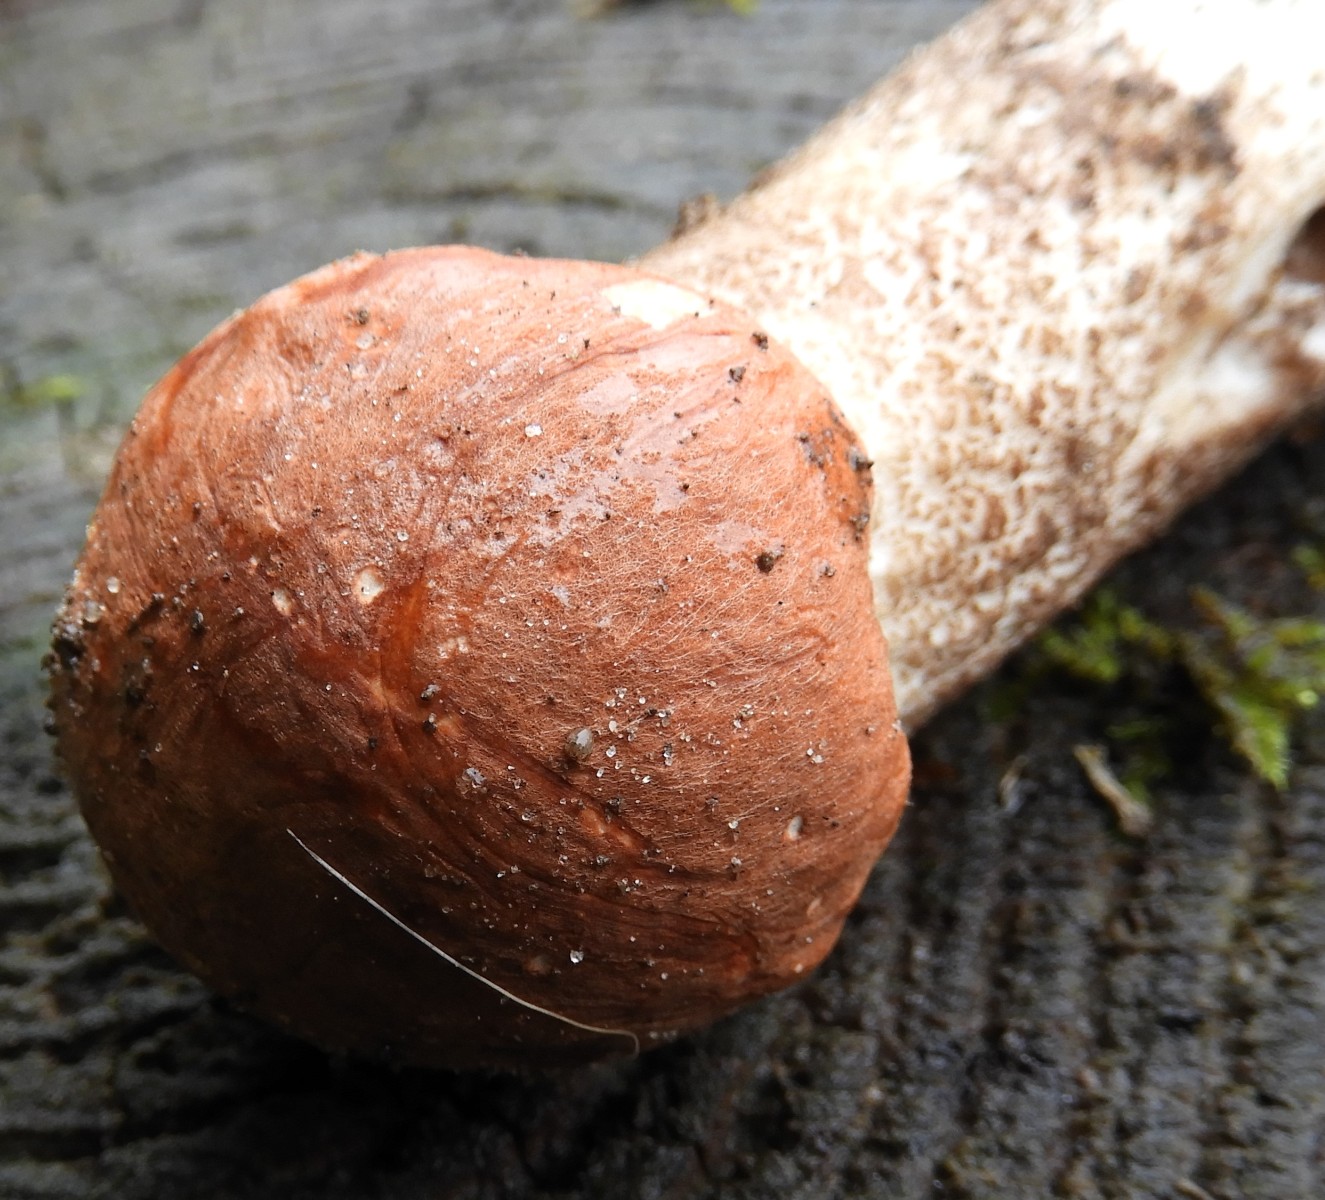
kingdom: Fungi
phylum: Basidiomycota
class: Agaricomycetes
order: Boletales
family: Boletaceae
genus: Leccinum
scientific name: Leccinum aurantiacum
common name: rustrød skælrørhat
